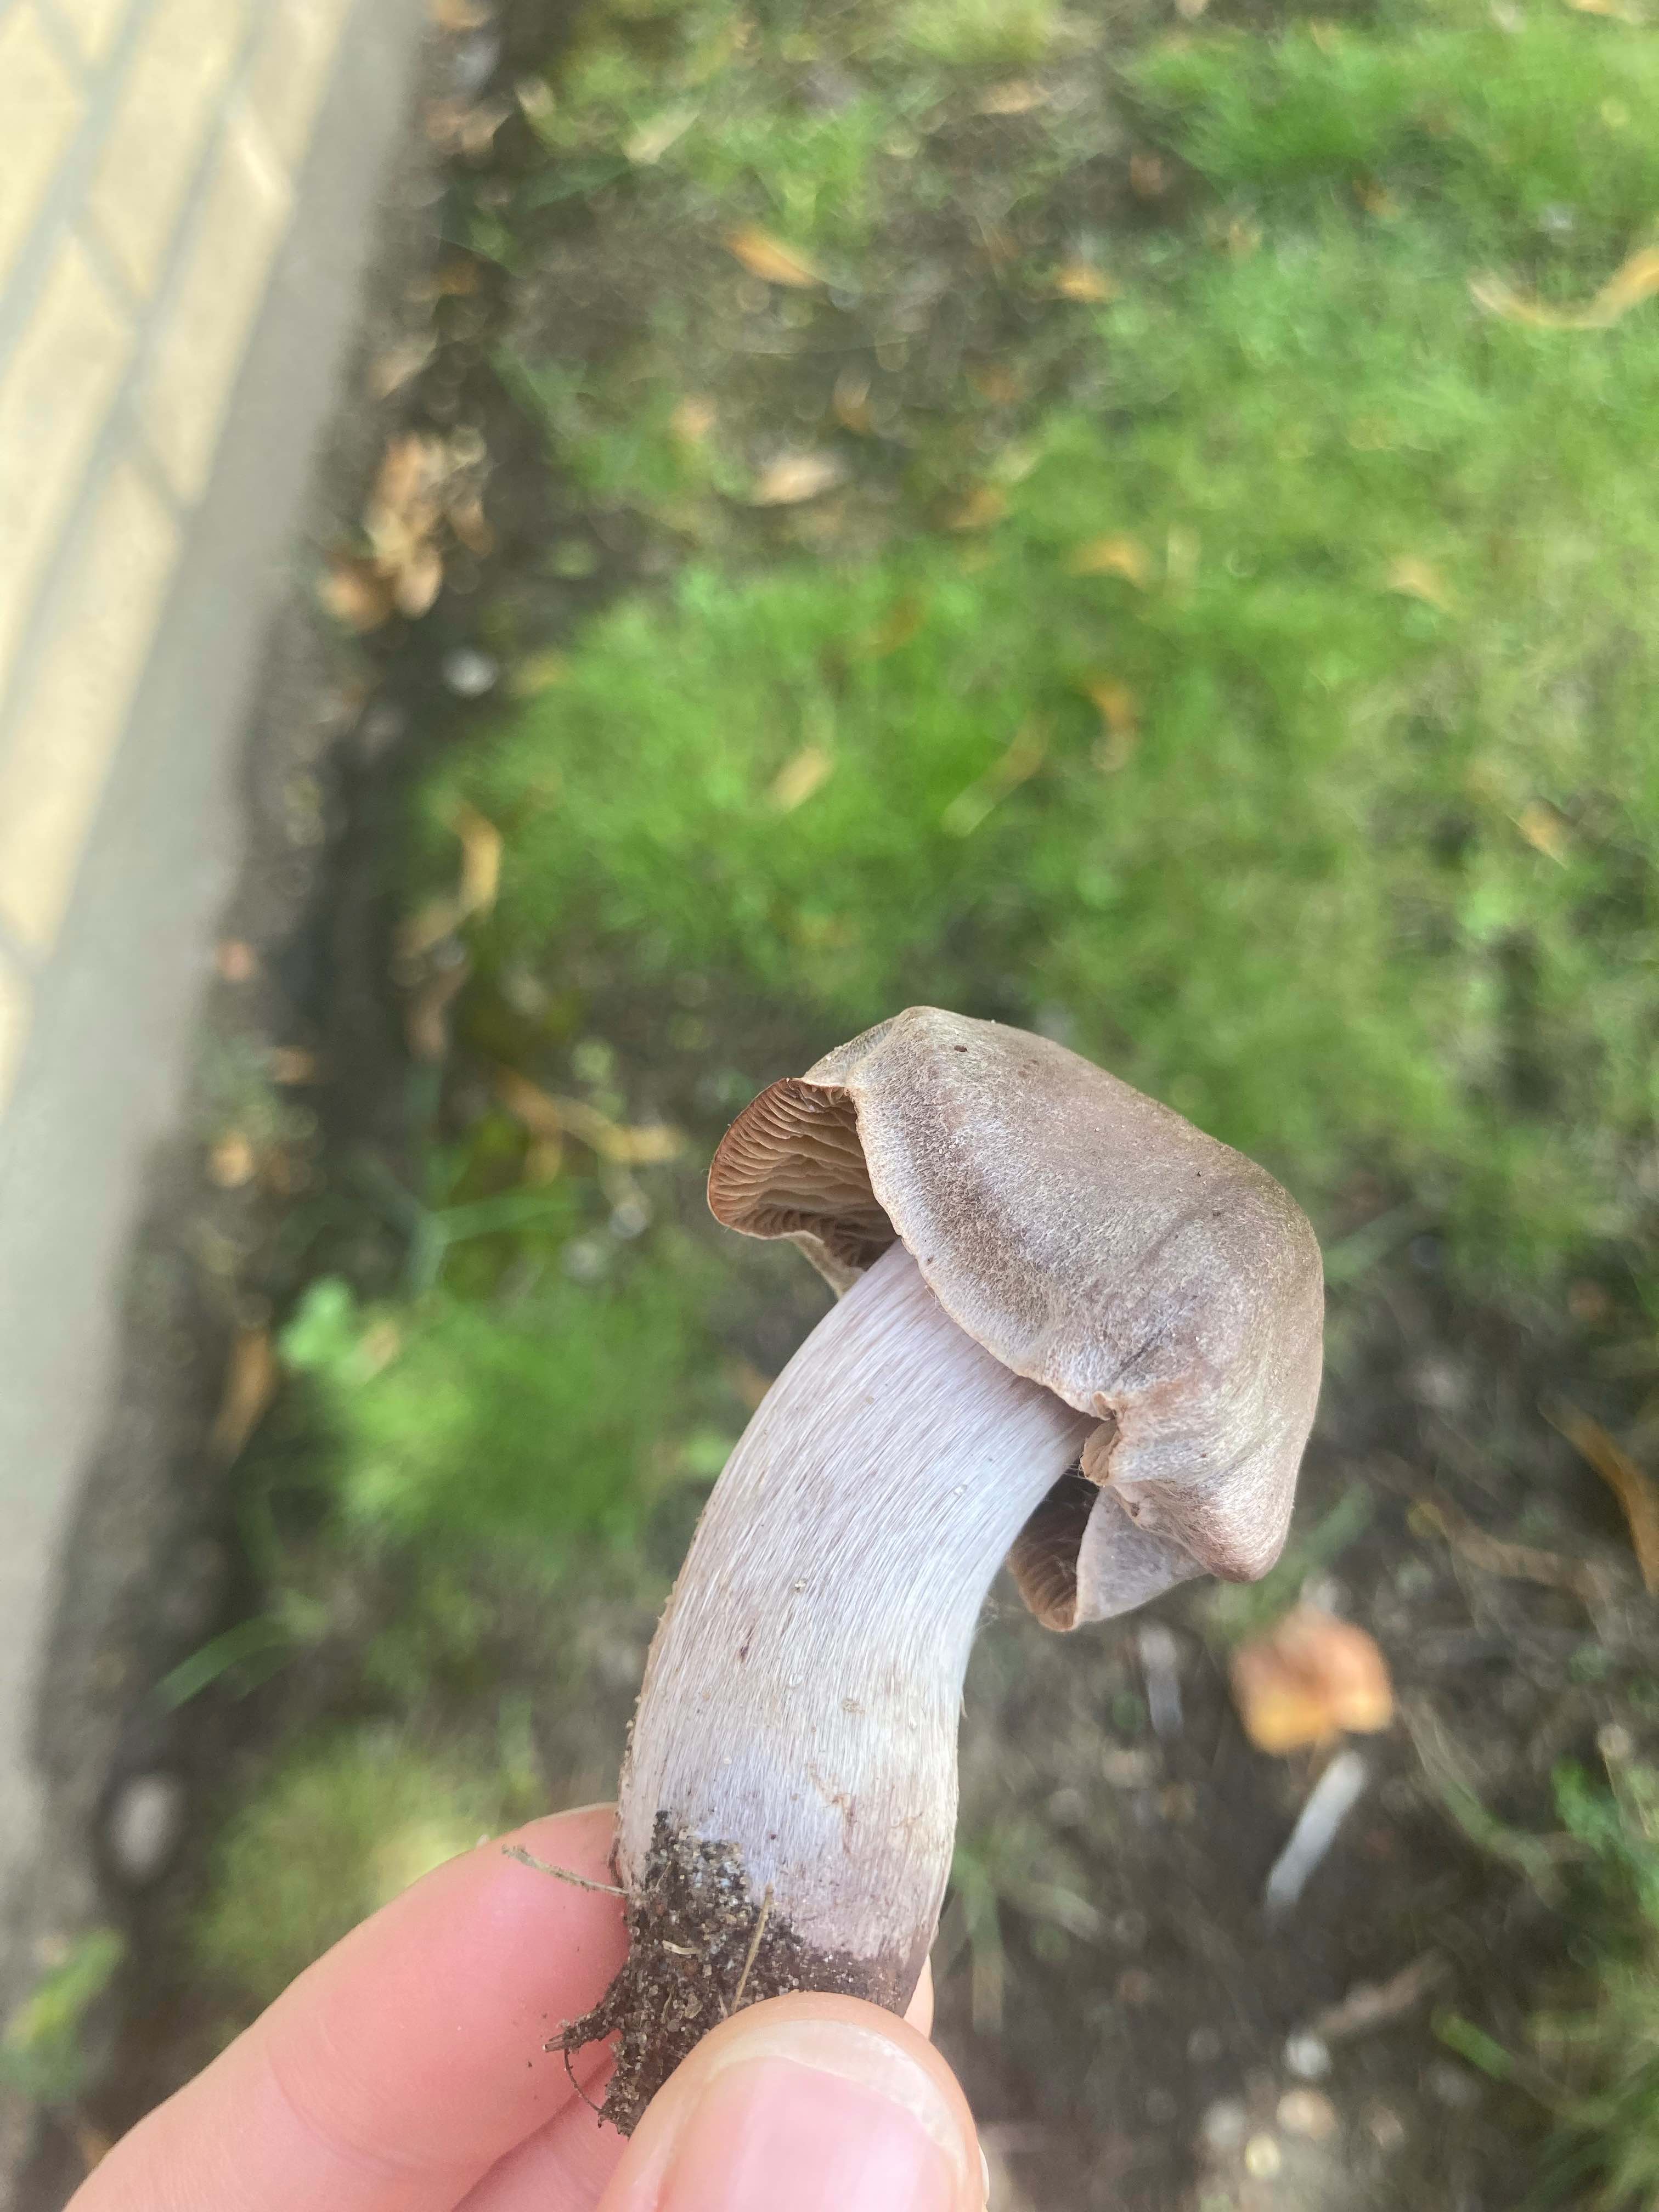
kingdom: Fungi
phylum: Basidiomycota
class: Agaricomycetes
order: Agaricales
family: Cortinariaceae
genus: Cortinarius
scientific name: Cortinarius
